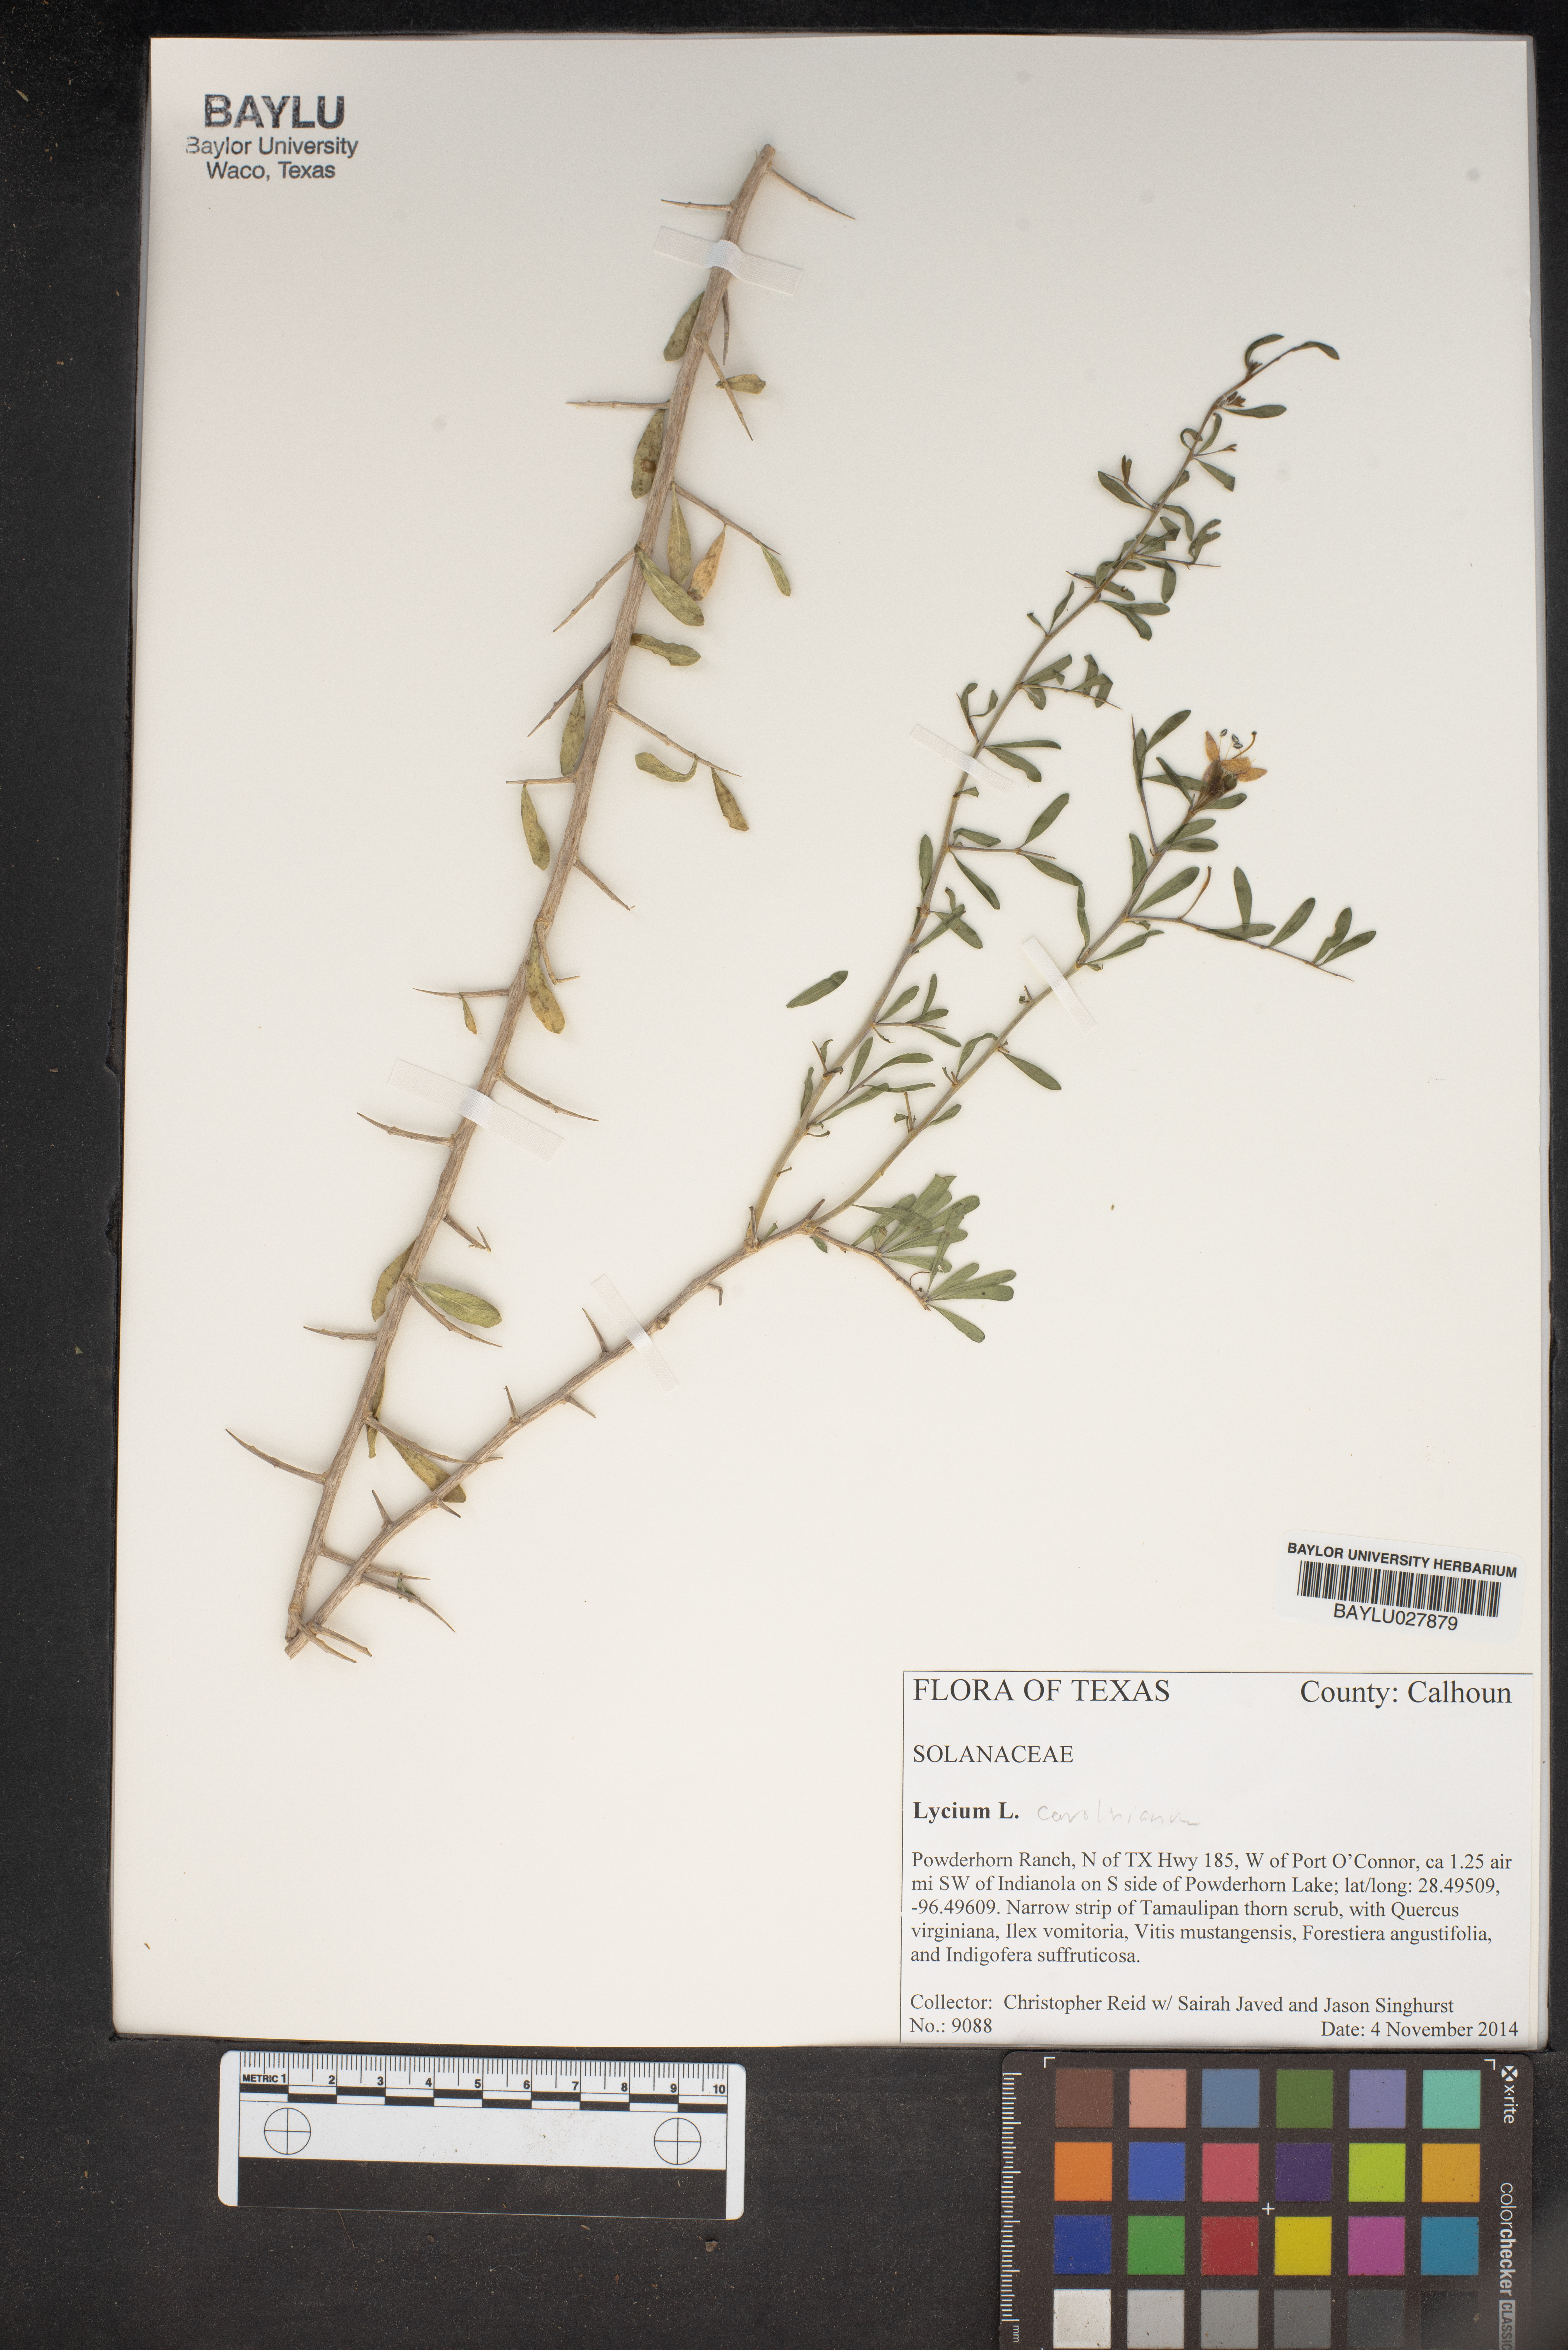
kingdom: Plantae
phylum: Tracheophyta
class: Magnoliopsida
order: Solanales
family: Solanaceae
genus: Lycium
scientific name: Lycium carolinianum
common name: Christmasberry
